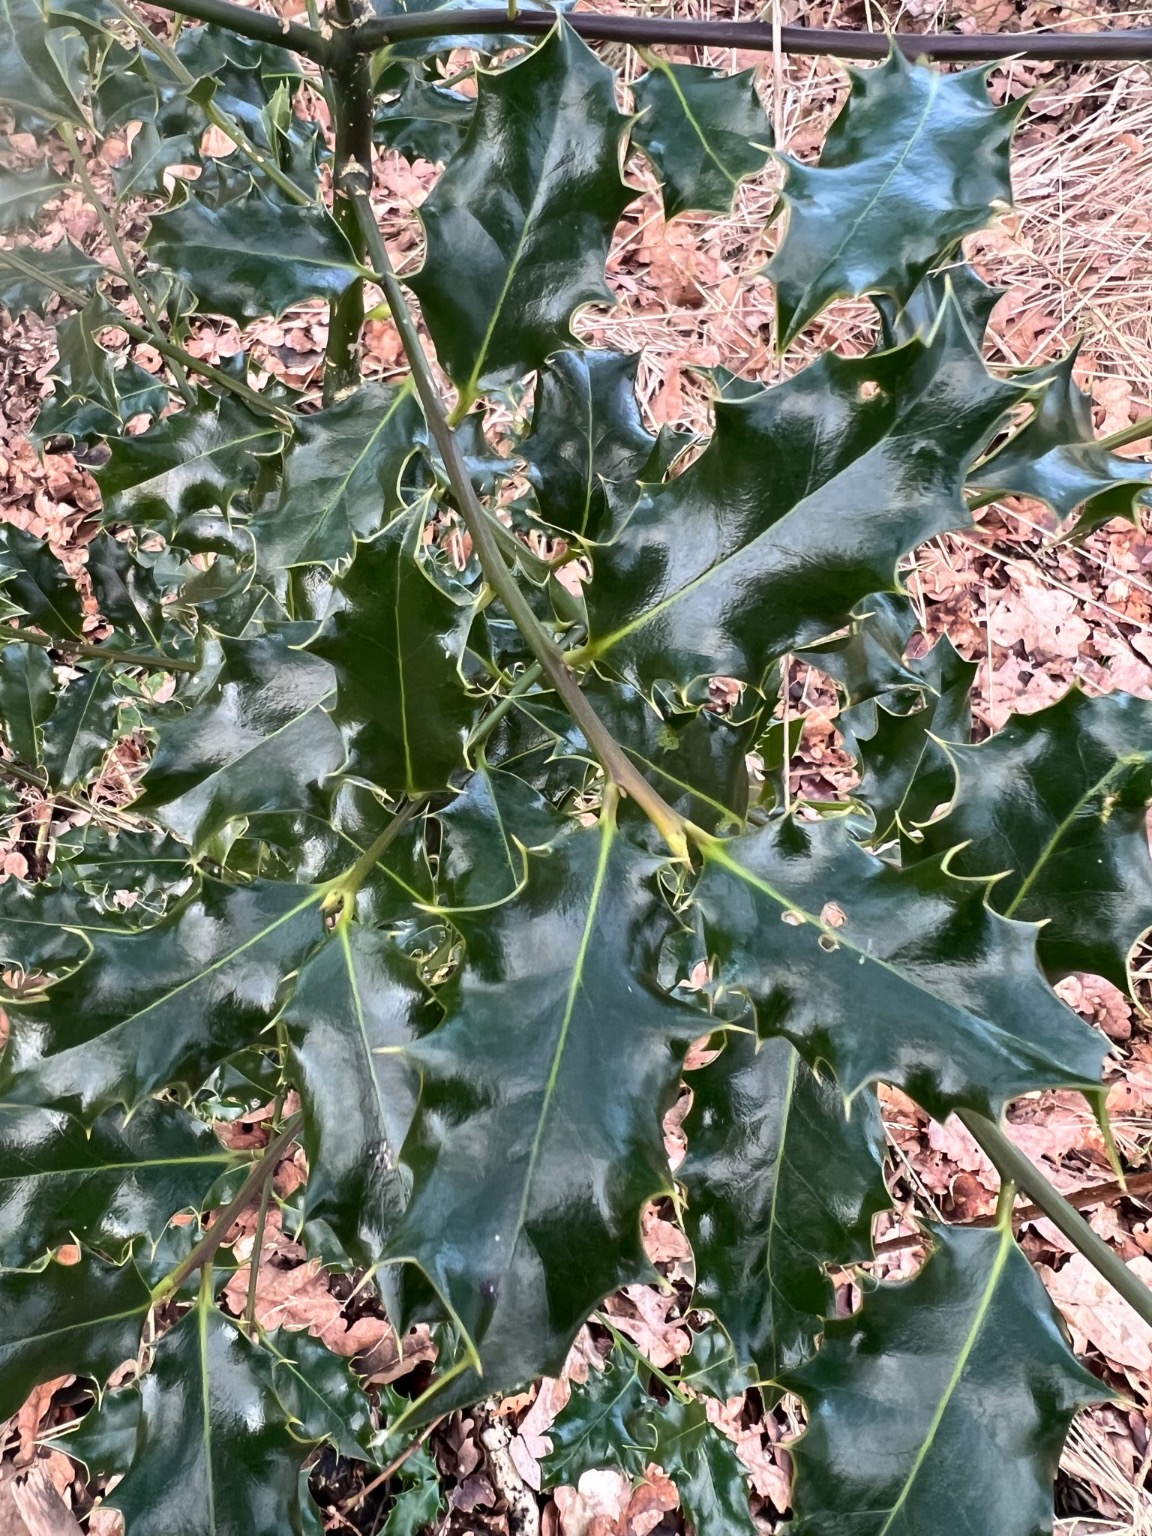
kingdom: Plantae
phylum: Tracheophyta
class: Magnoliopsida
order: Aquifoliales
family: Aquifoliaceae
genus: Ilex
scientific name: Ilex aquifolium
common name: Kristtorn
